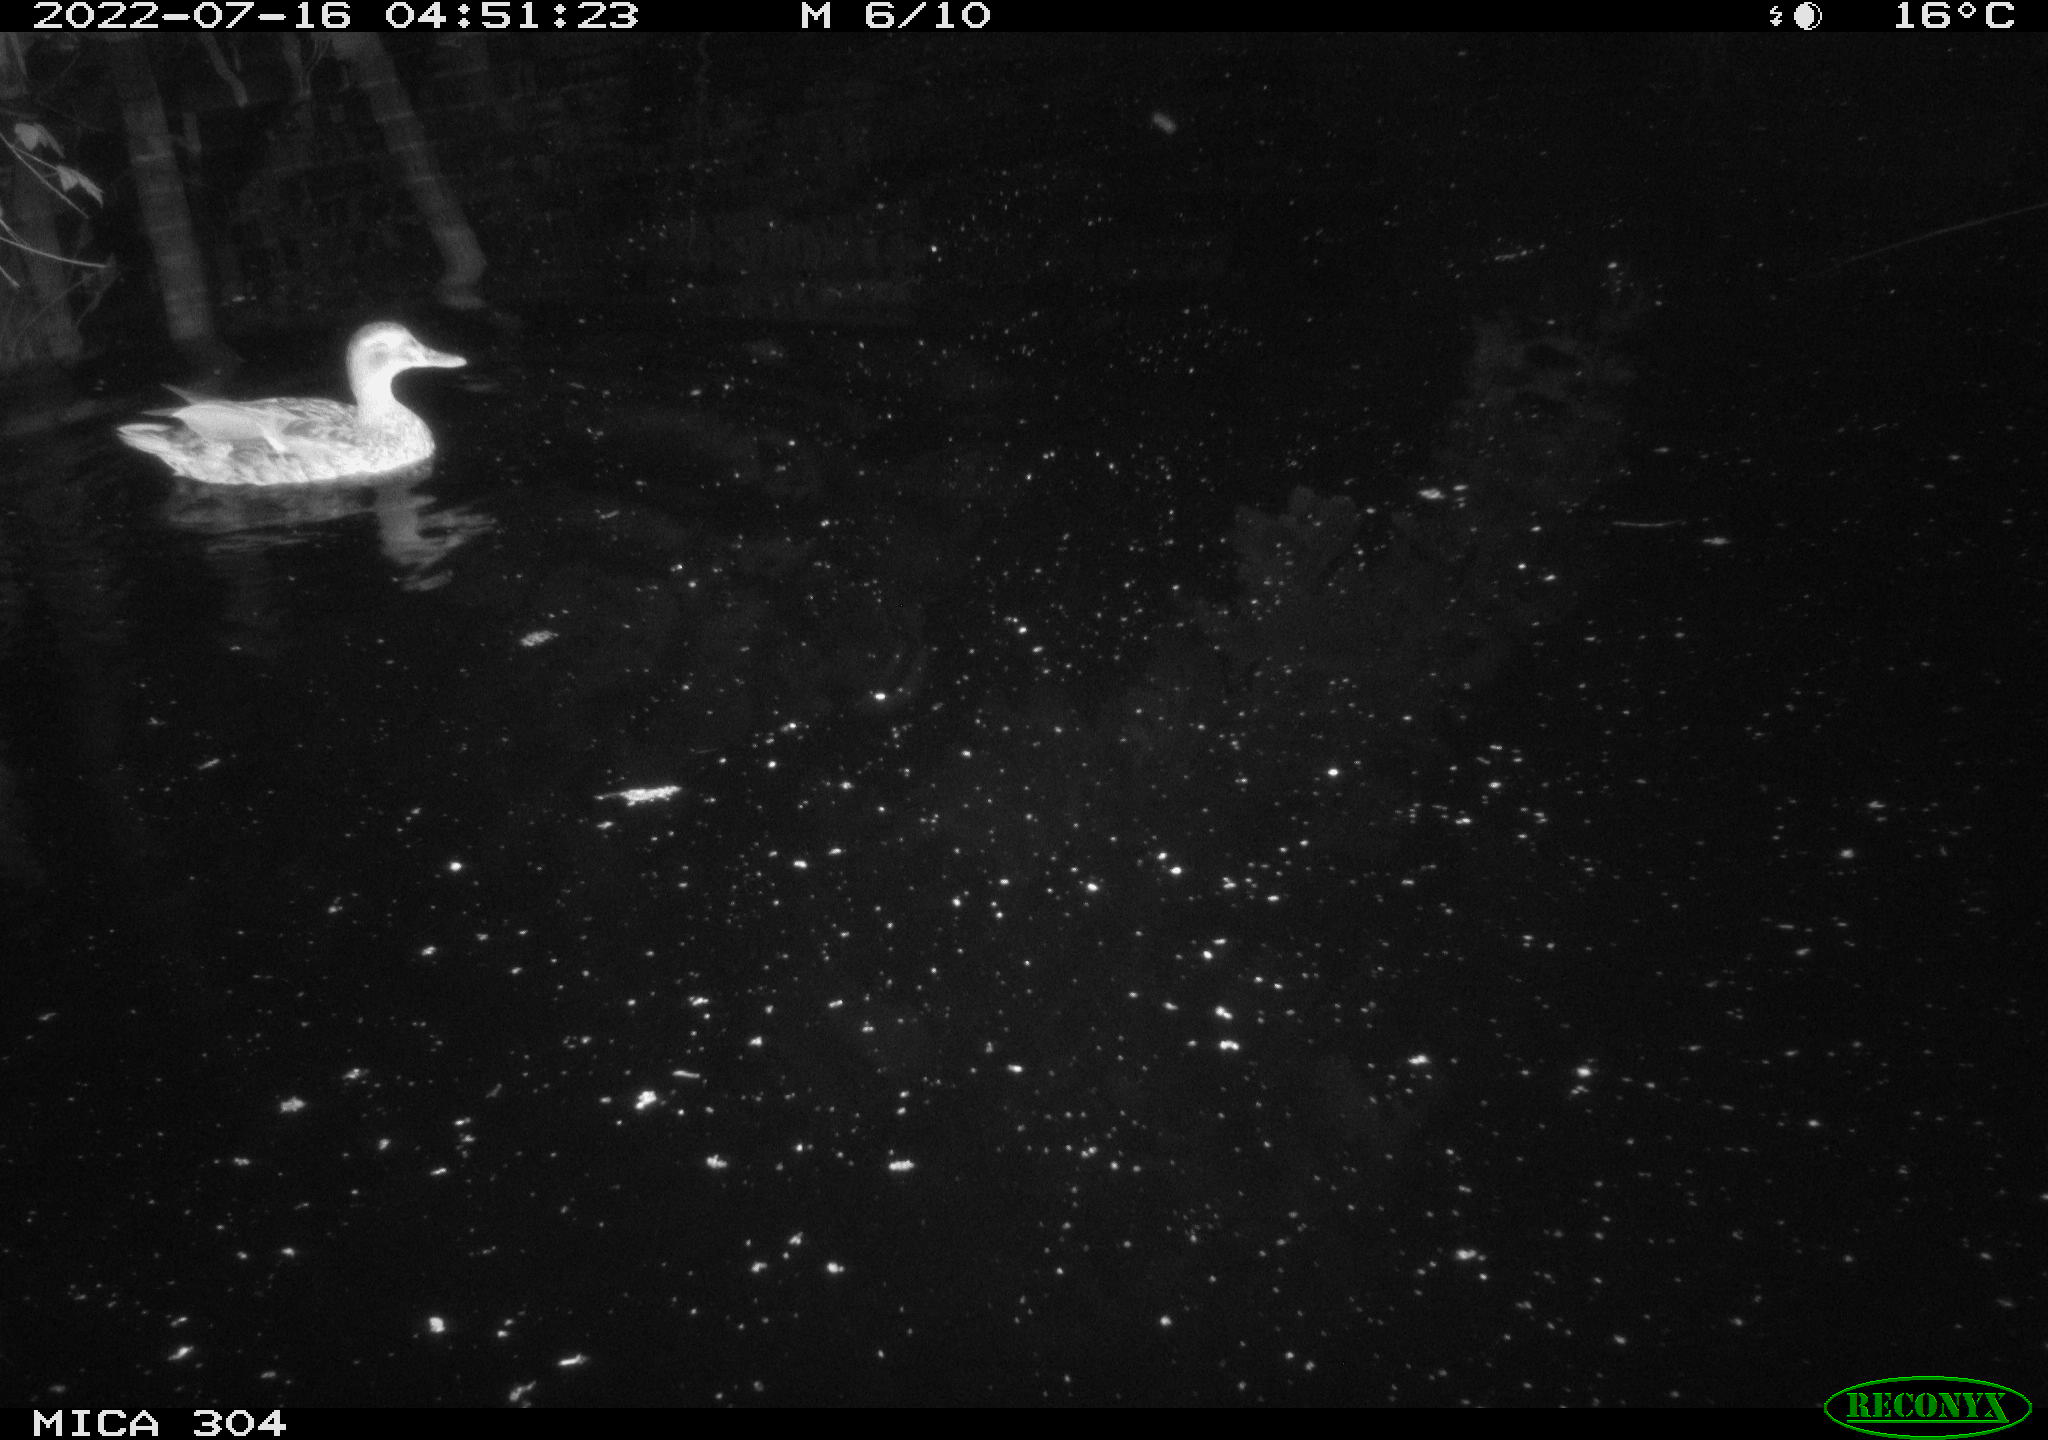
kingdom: Animalia
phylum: Chordata
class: Aves
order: Anseriformes
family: Anatidae
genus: Mareca
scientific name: Mareca strepera
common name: Gadwall
